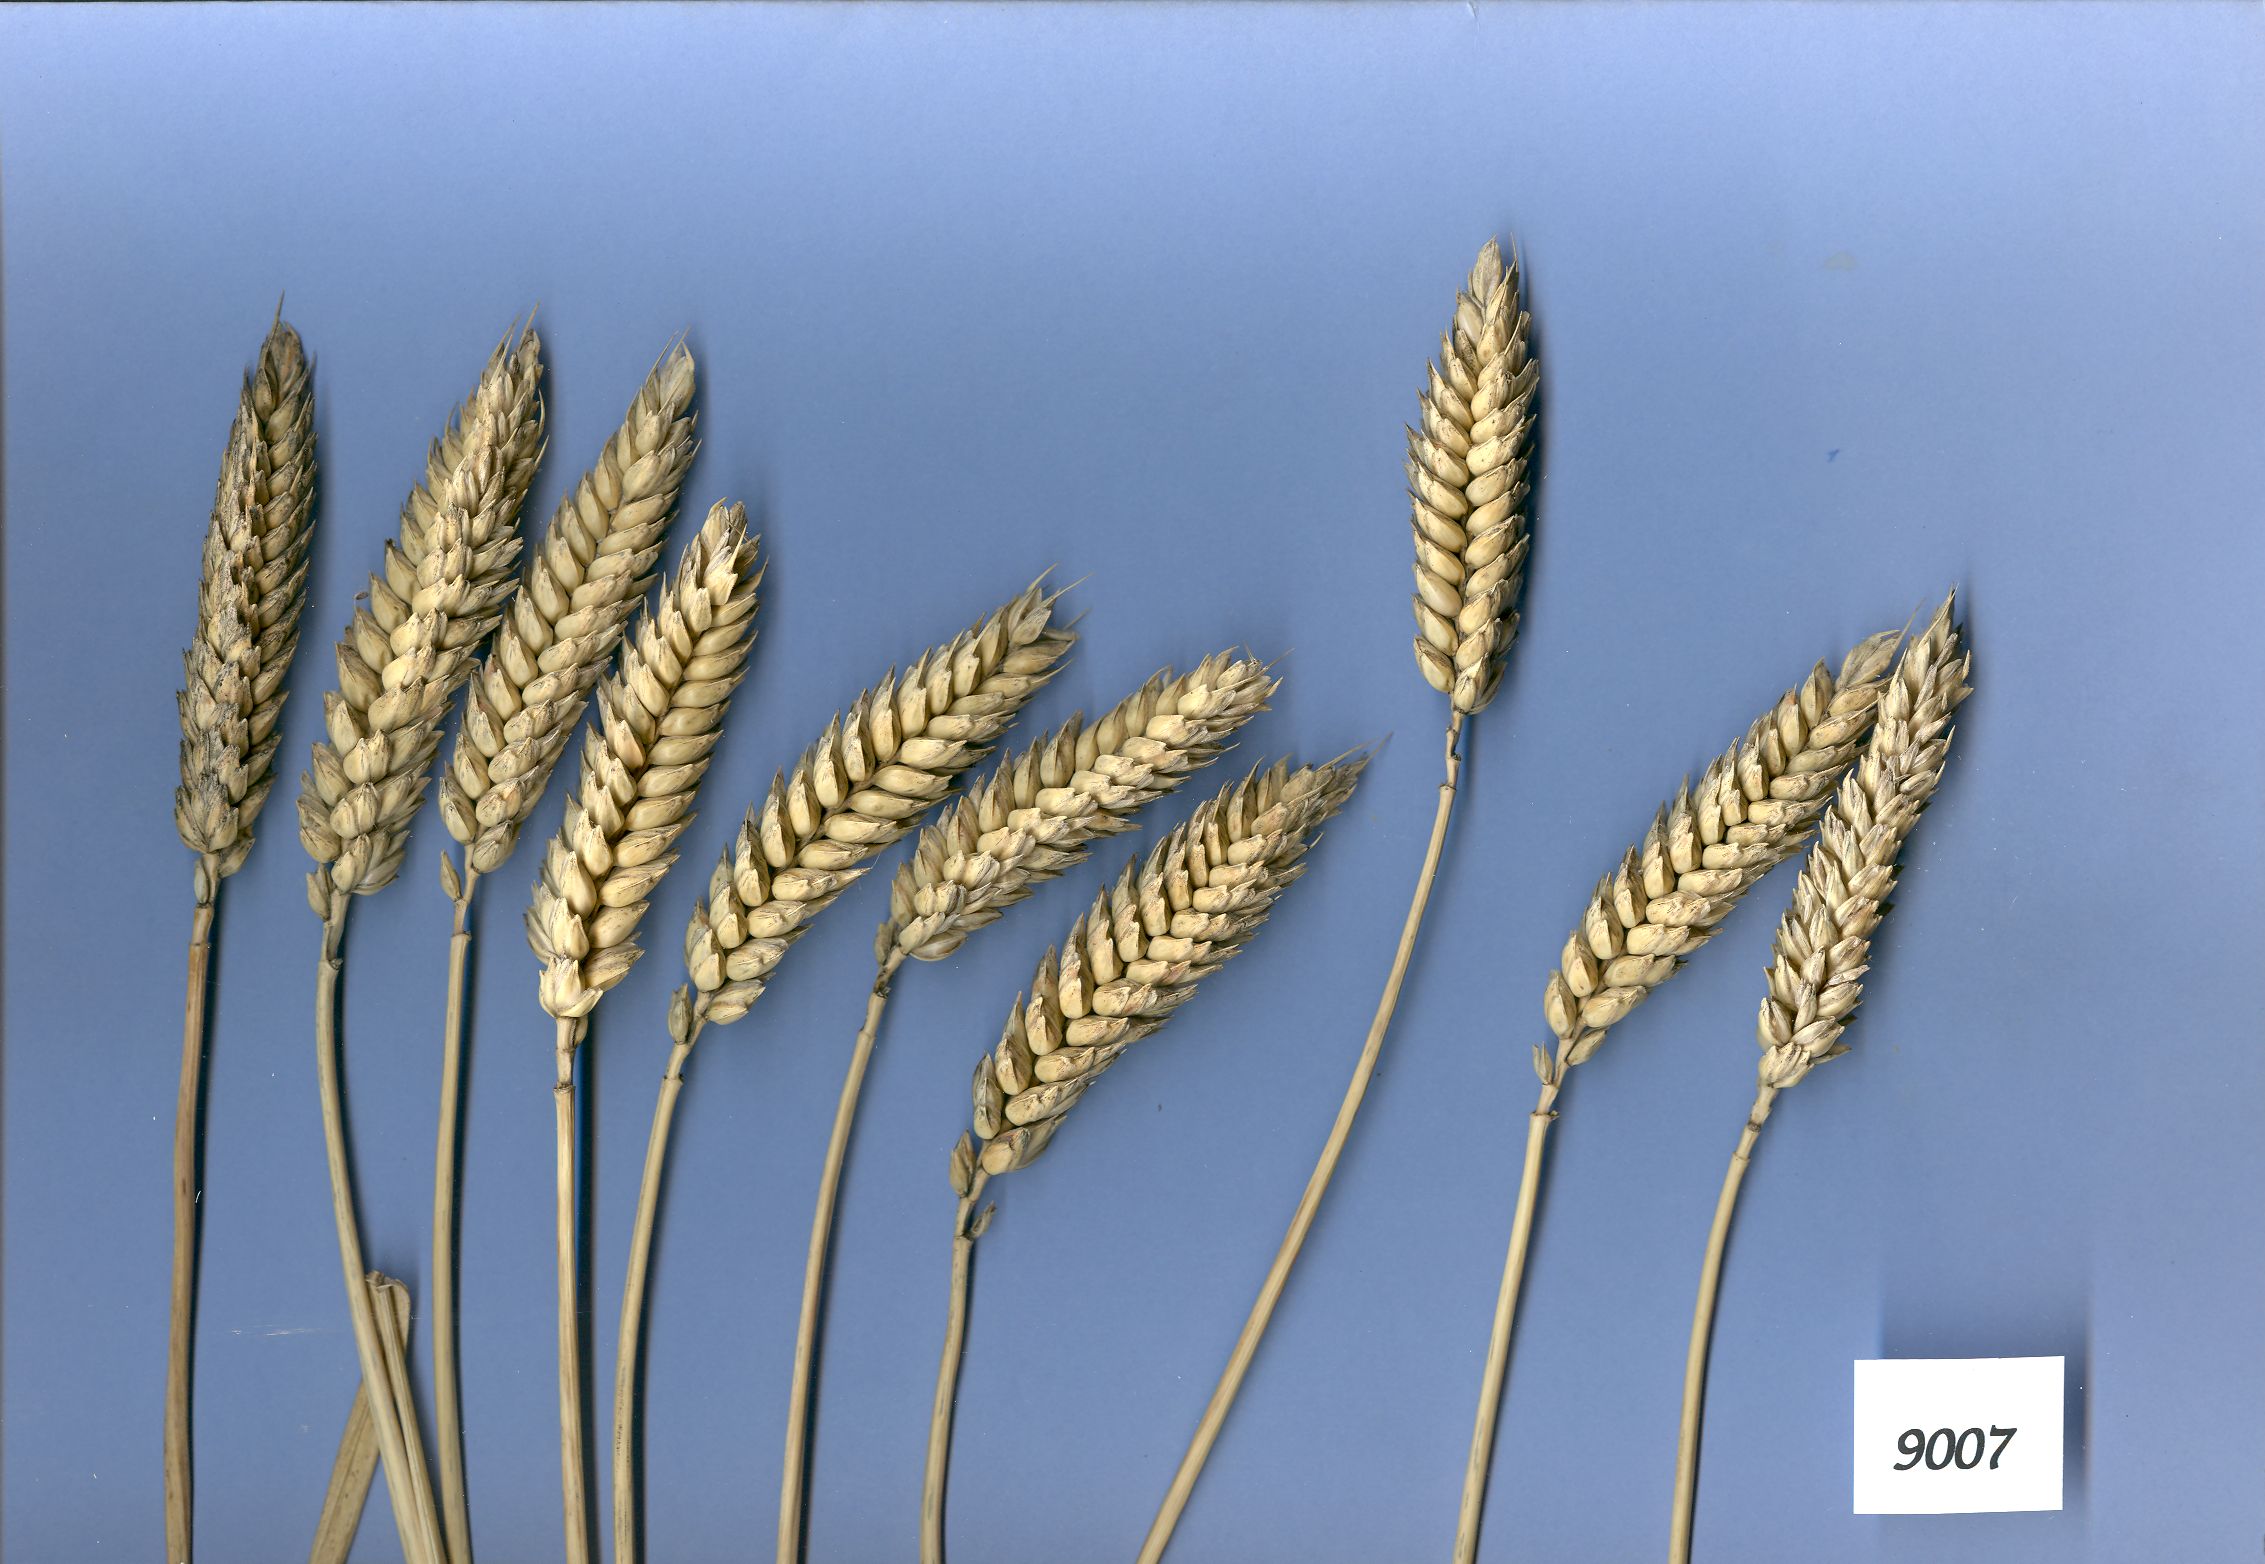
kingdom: Plantae
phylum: Tracheophyta
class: Liliopsida
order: Poales
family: Poaceae
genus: Triticum
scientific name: Triticum aestivum
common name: Common wheat
